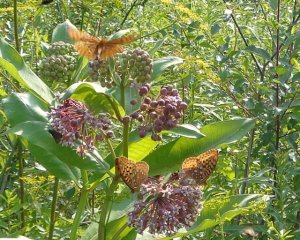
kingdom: Animalia
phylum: Arthropoda
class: Insecta
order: Lepidoptera
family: Nymphalidae
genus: Speyeria
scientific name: Speyeria cybele
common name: Great Spangled Fritillary
